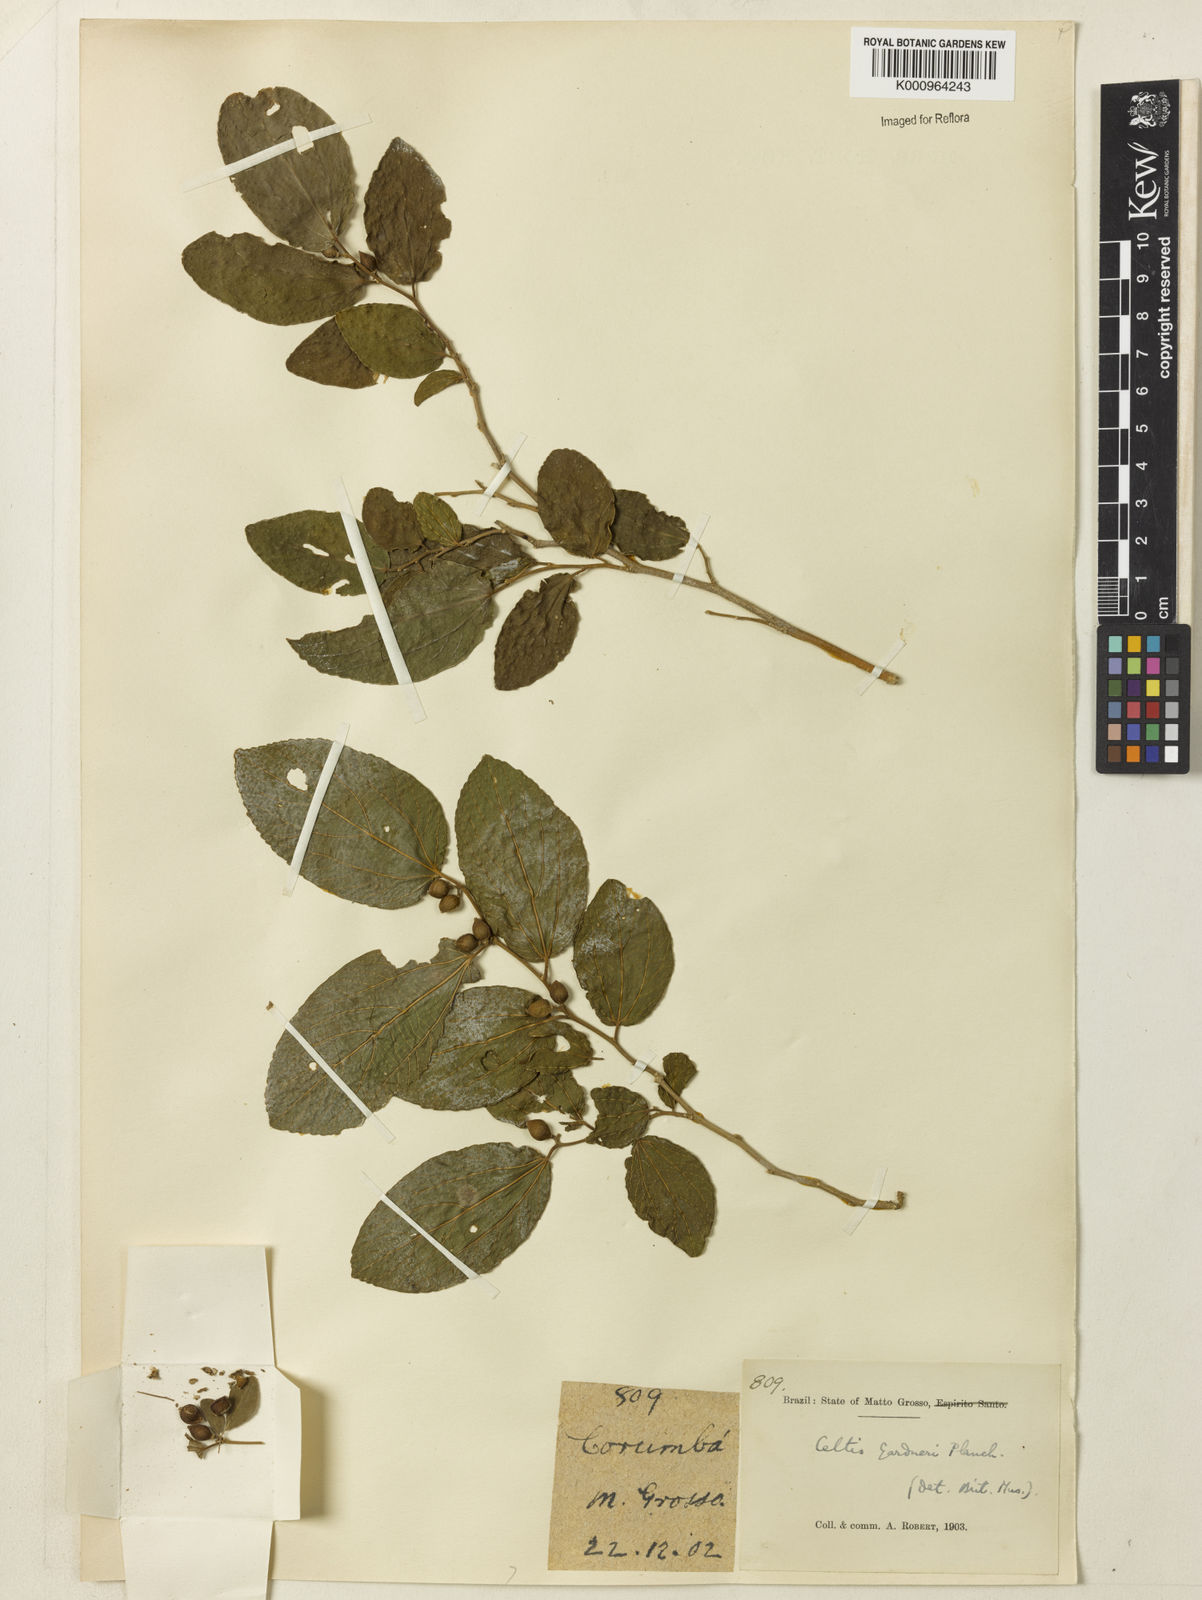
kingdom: Plantae
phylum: Tracheophyta
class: Magnoliopsida
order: Rosales
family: Cannabaceae
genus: Celtis
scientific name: Celtis iguanaea
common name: Iguana hackberry
